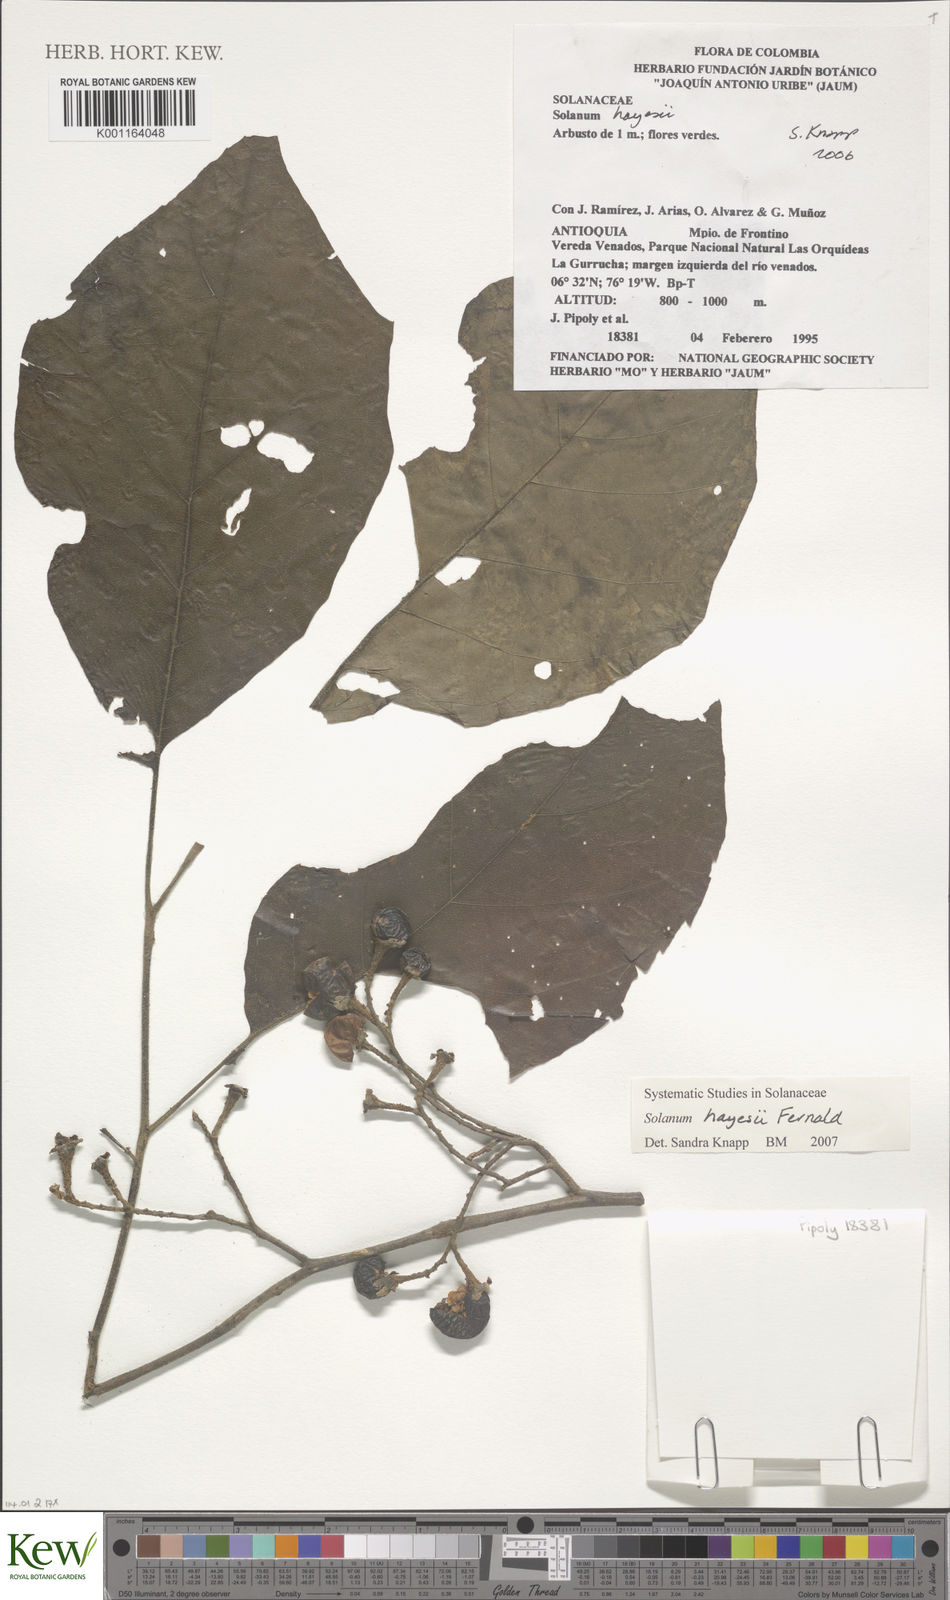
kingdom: Plantae
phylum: Tracheophyta
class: Magnoliopsida
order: Solanales
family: Solanaceae
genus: Solanum
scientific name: Solanum hayesii
